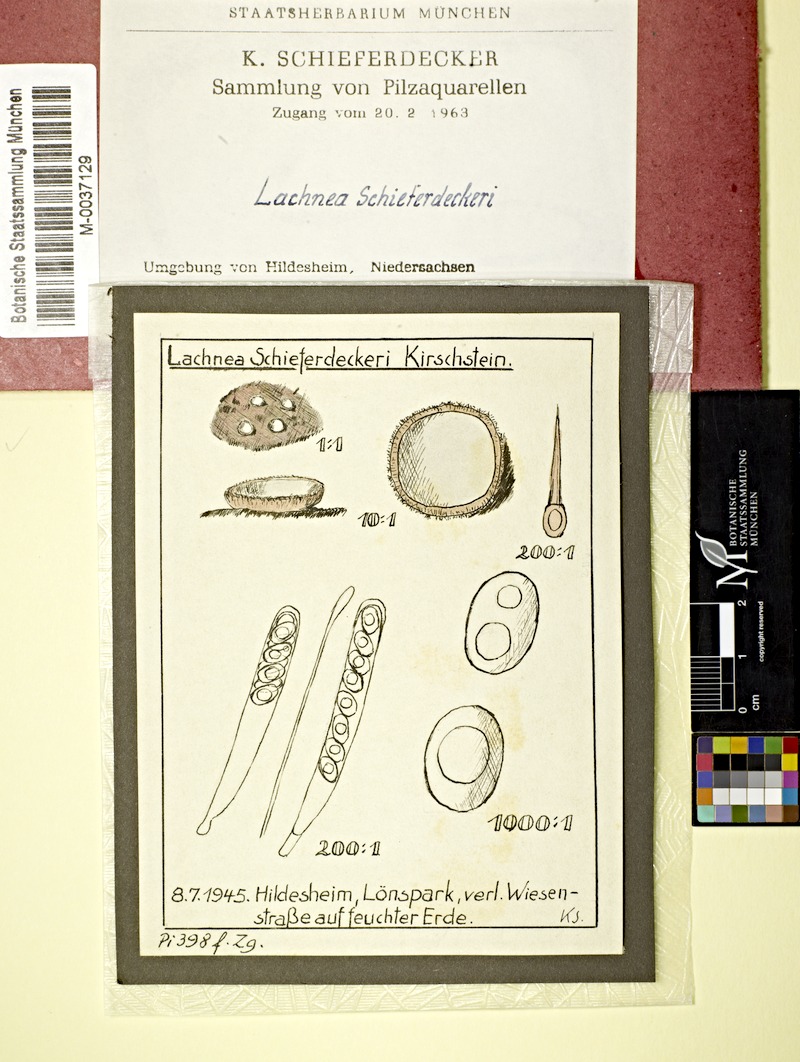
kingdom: Fungi
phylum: Ascomycota
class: Pezizomycetes
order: Pezizales
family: Pyronemataceae
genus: Lachnea
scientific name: Lachnea schieferdeckeri
